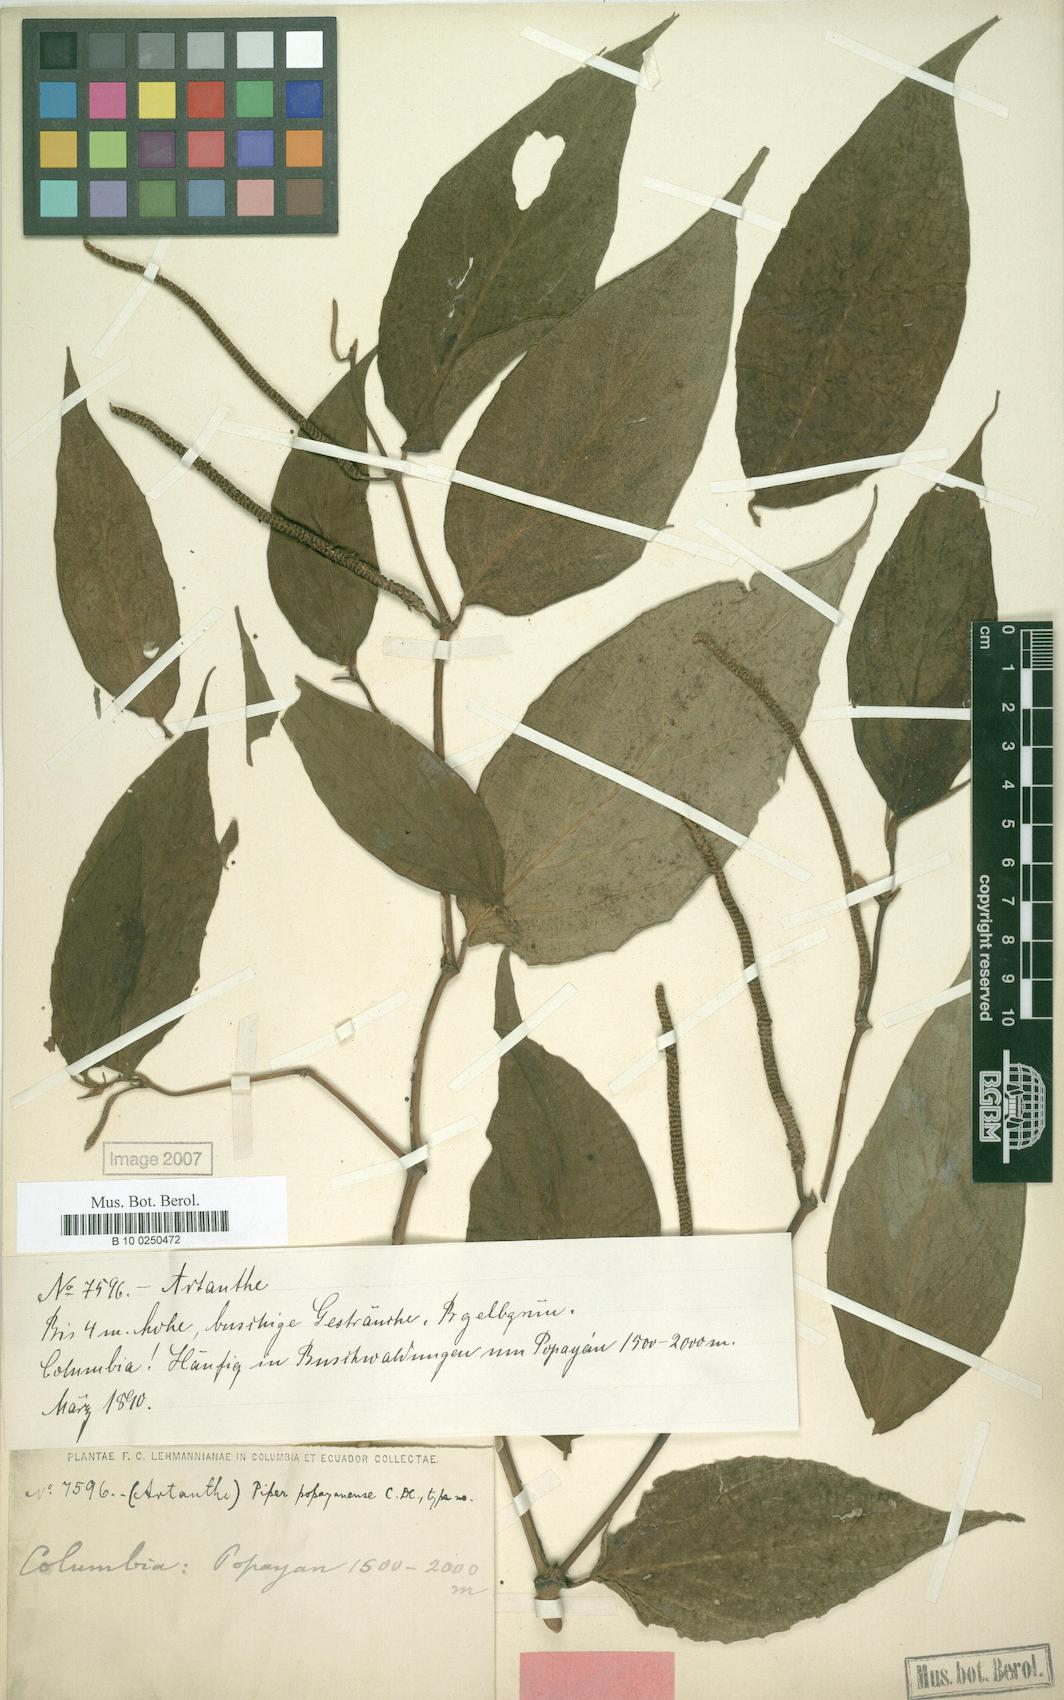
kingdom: Plantae
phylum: Tracheophyta
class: Magnoliopsida
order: Piperales
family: Piperaceae
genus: Piper
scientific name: Piper popayanense
